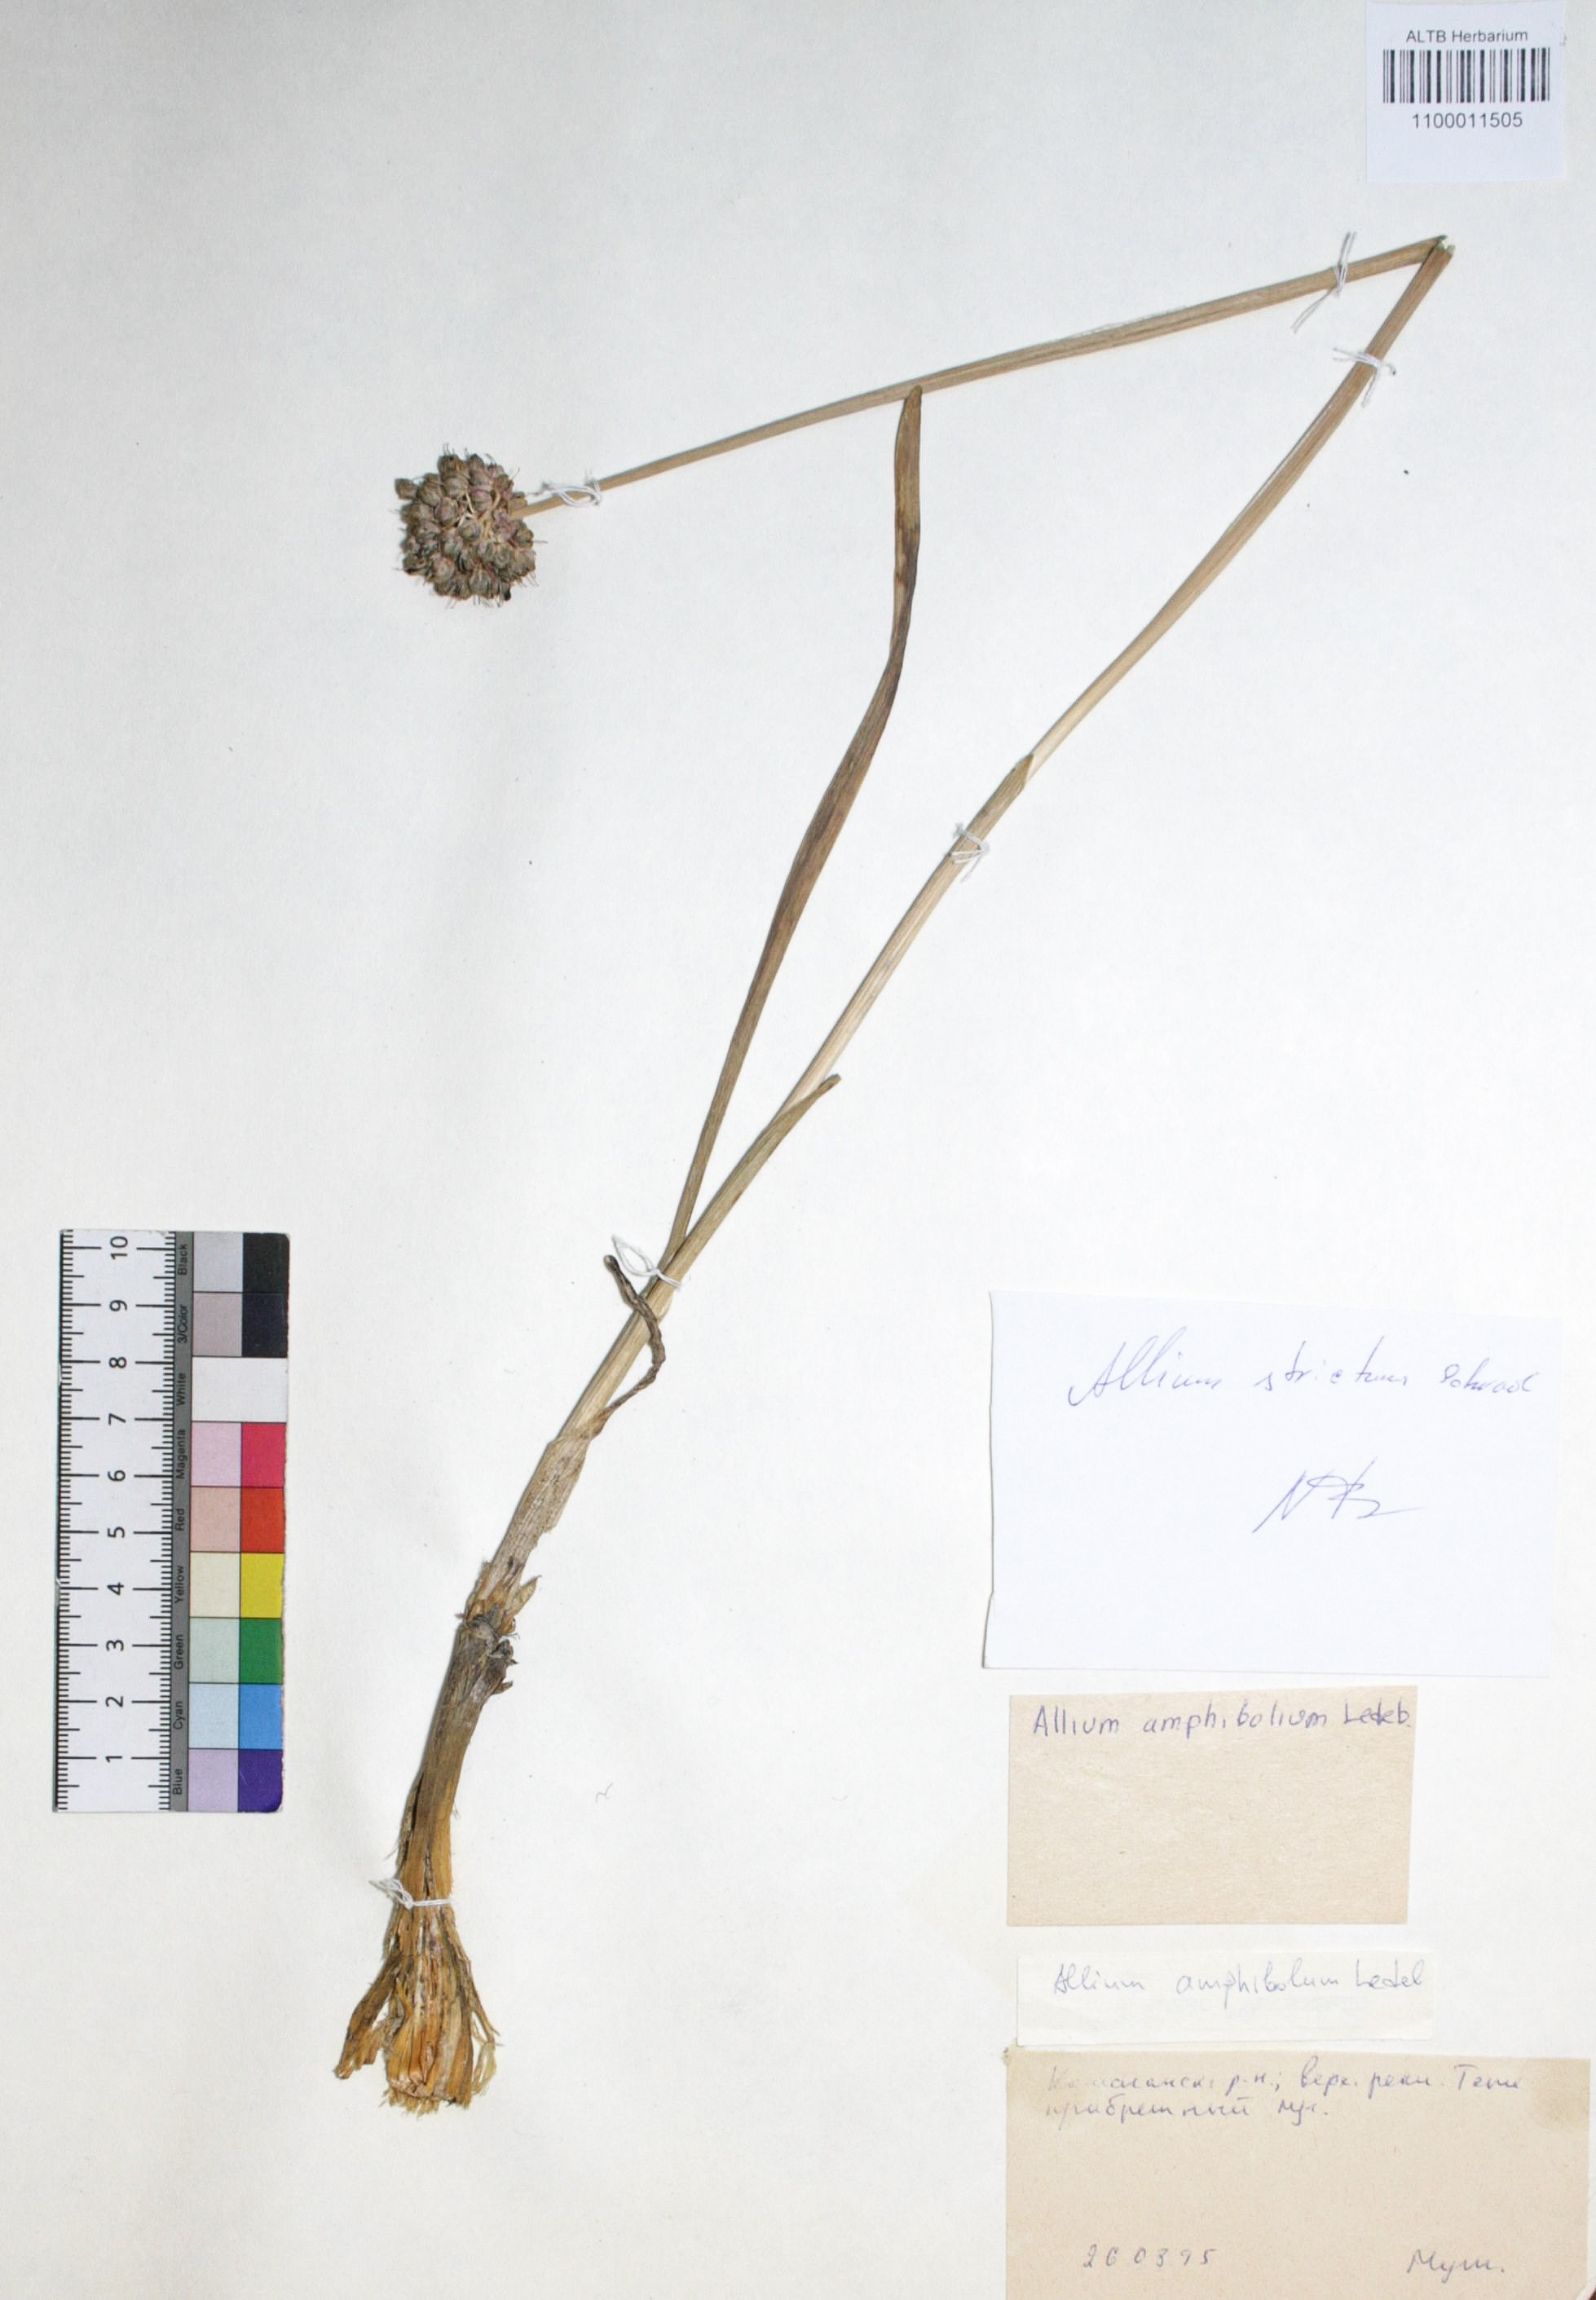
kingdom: Plantae
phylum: Tracheophyta
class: Liliopsida
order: Asparagales
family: Amaryllidaceae
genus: Allium
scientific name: Allium amphibolum
